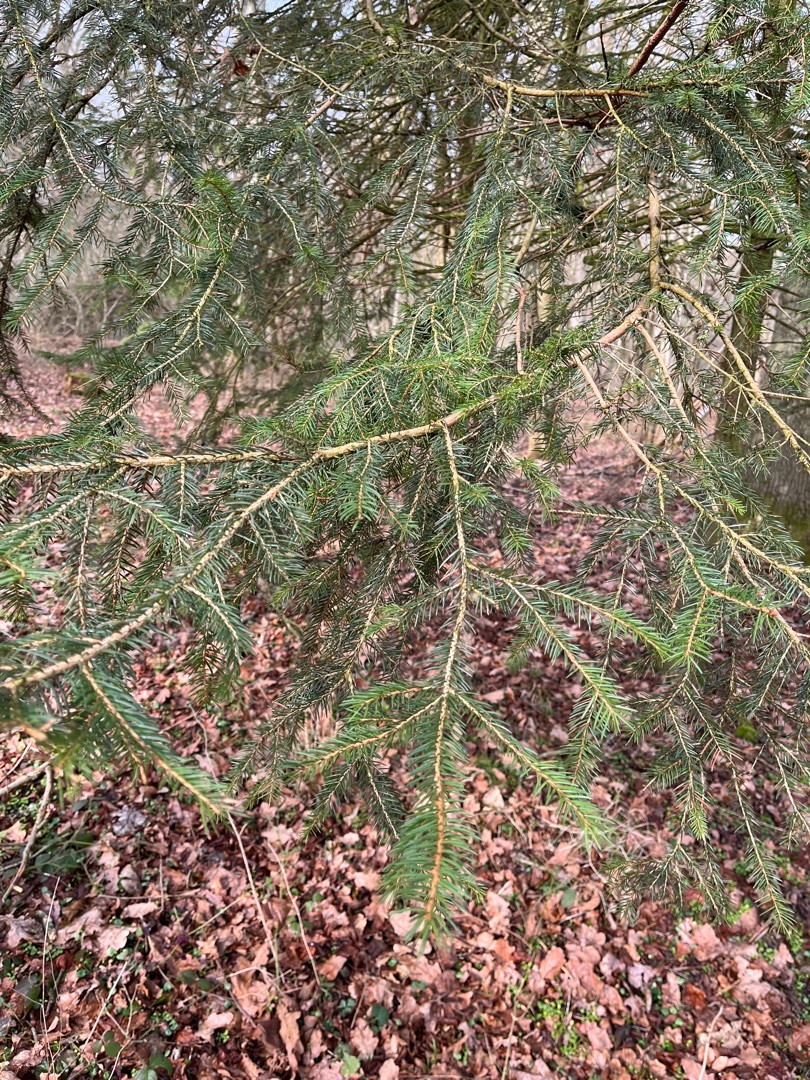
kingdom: Plantae
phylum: Tracheophyta
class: Pinopsida
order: Pinales
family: Pinaceae
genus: Picea
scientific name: Picea abies
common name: Rød-gran
